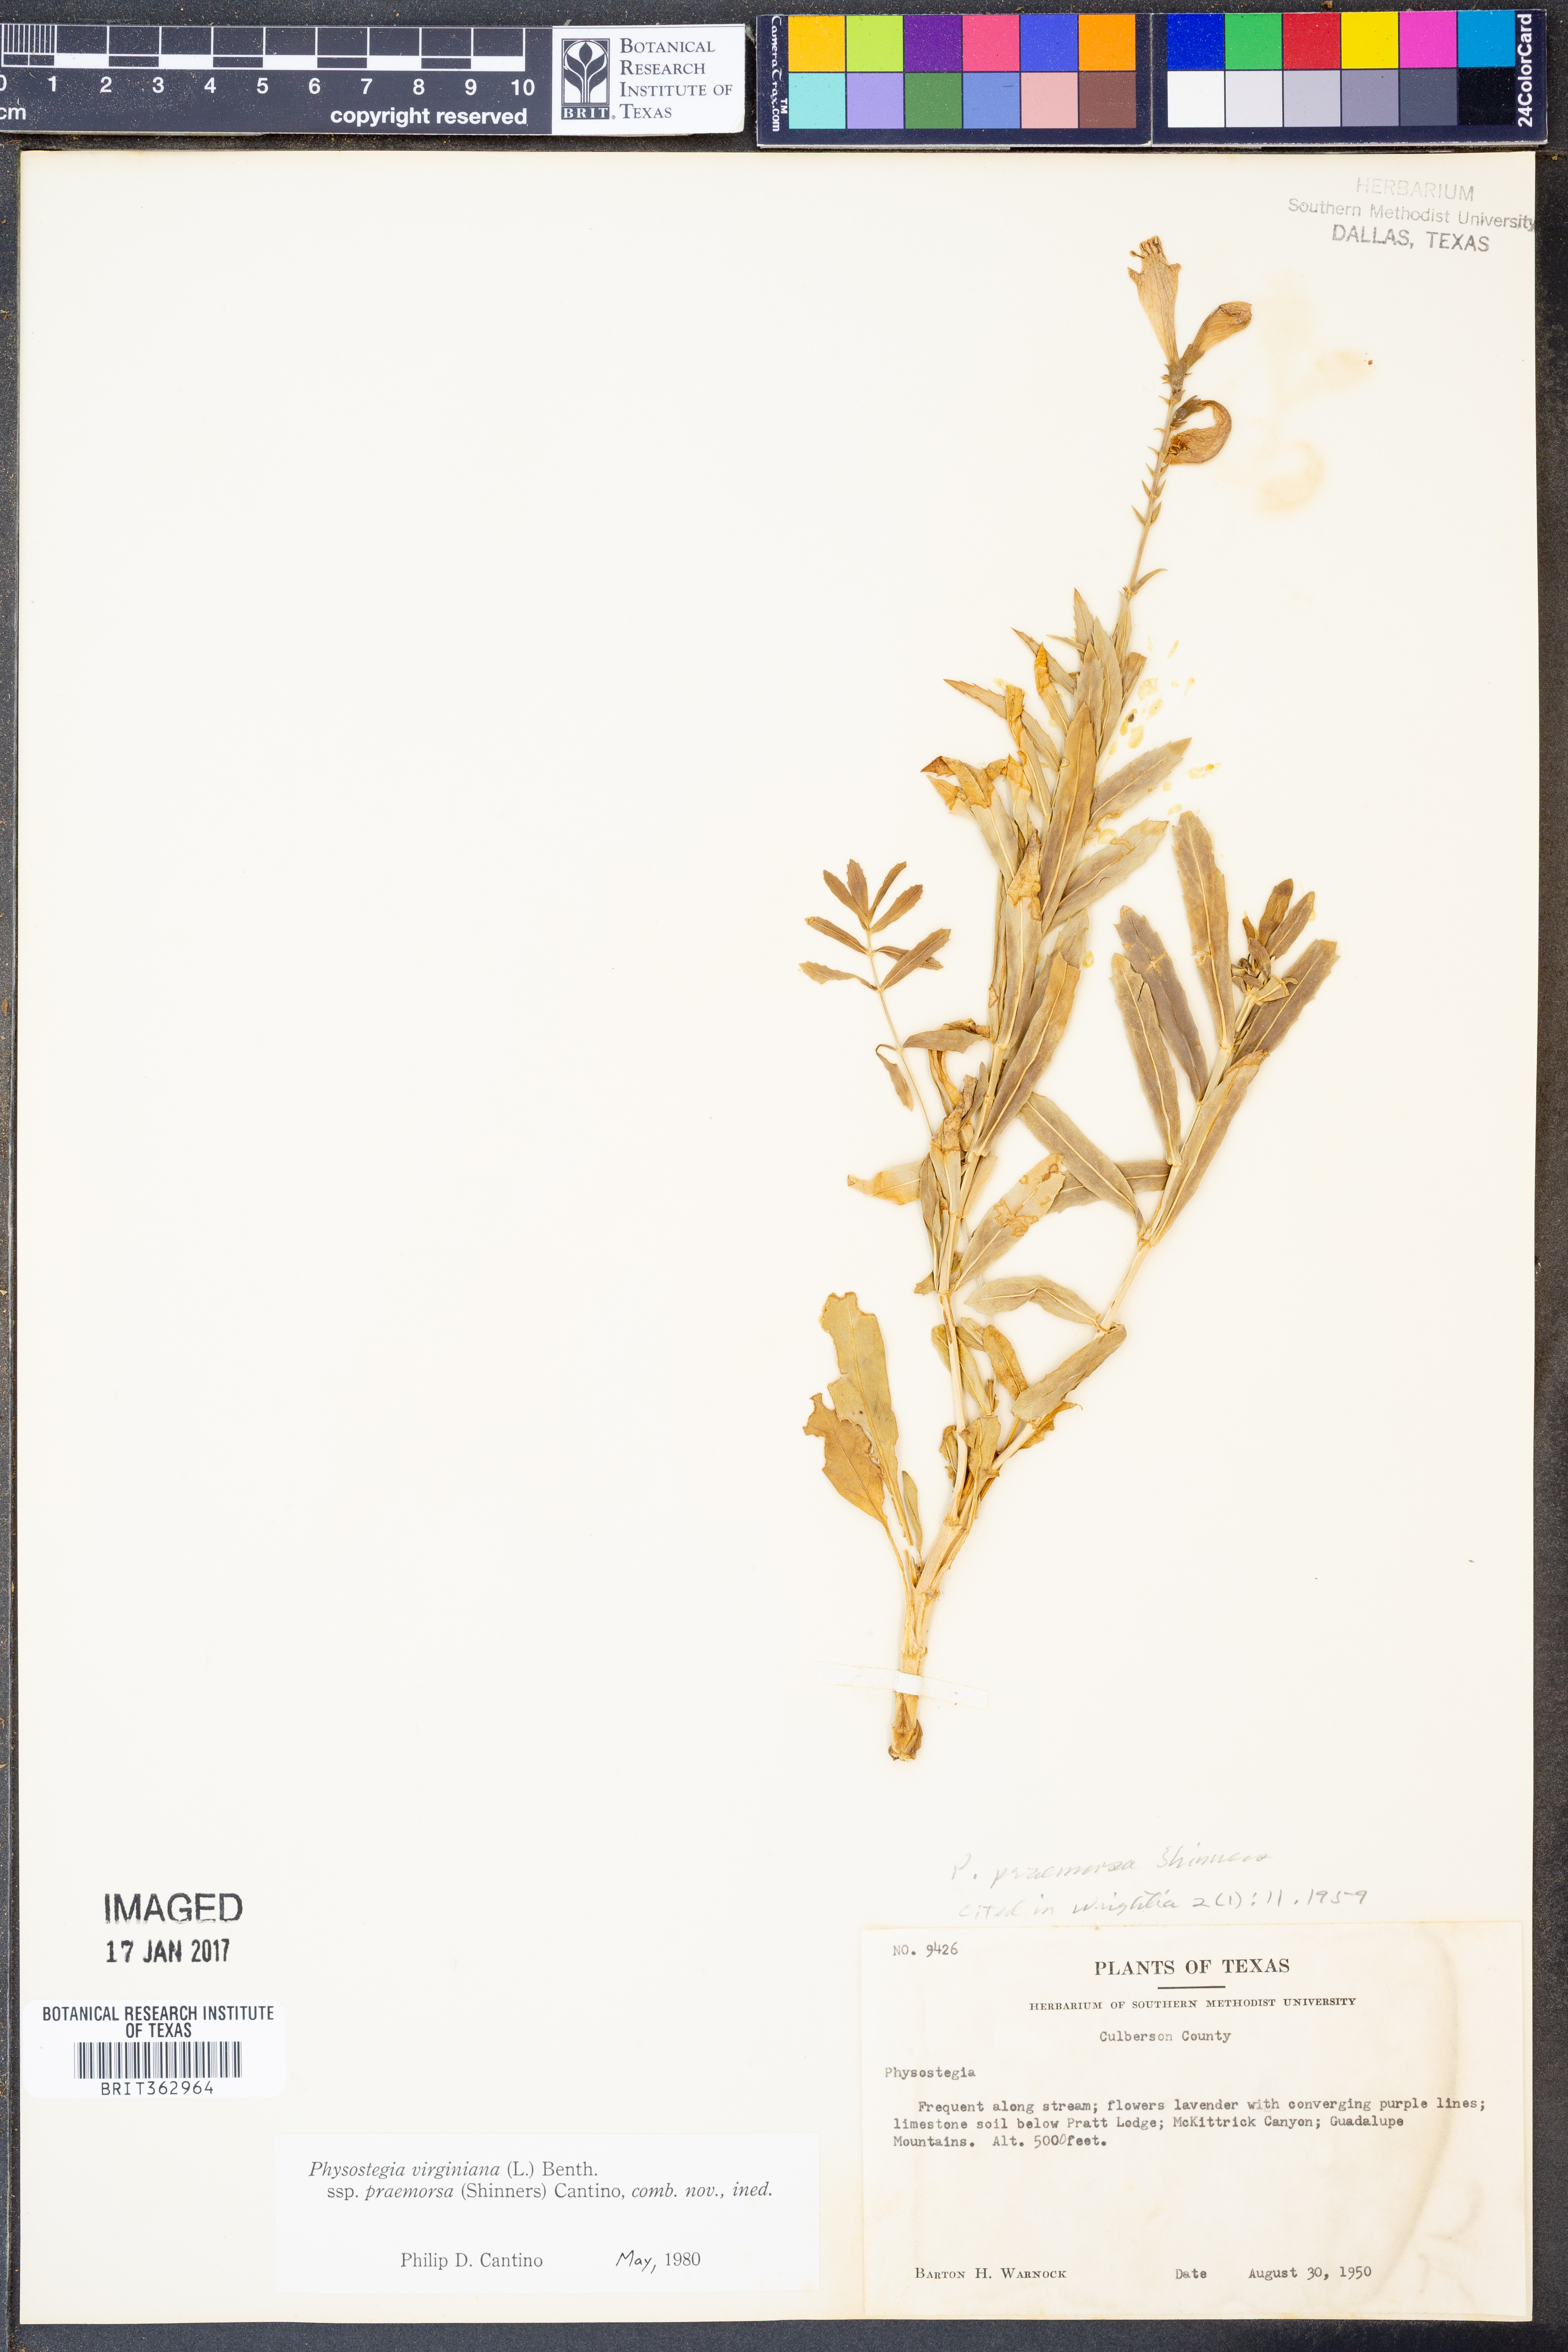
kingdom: Plantae
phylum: Tracheophyta
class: Magnoliopsida
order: Lamiales
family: Lamiaceae
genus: Physostegia
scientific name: Physostegia virginiana
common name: Obedient-plant
